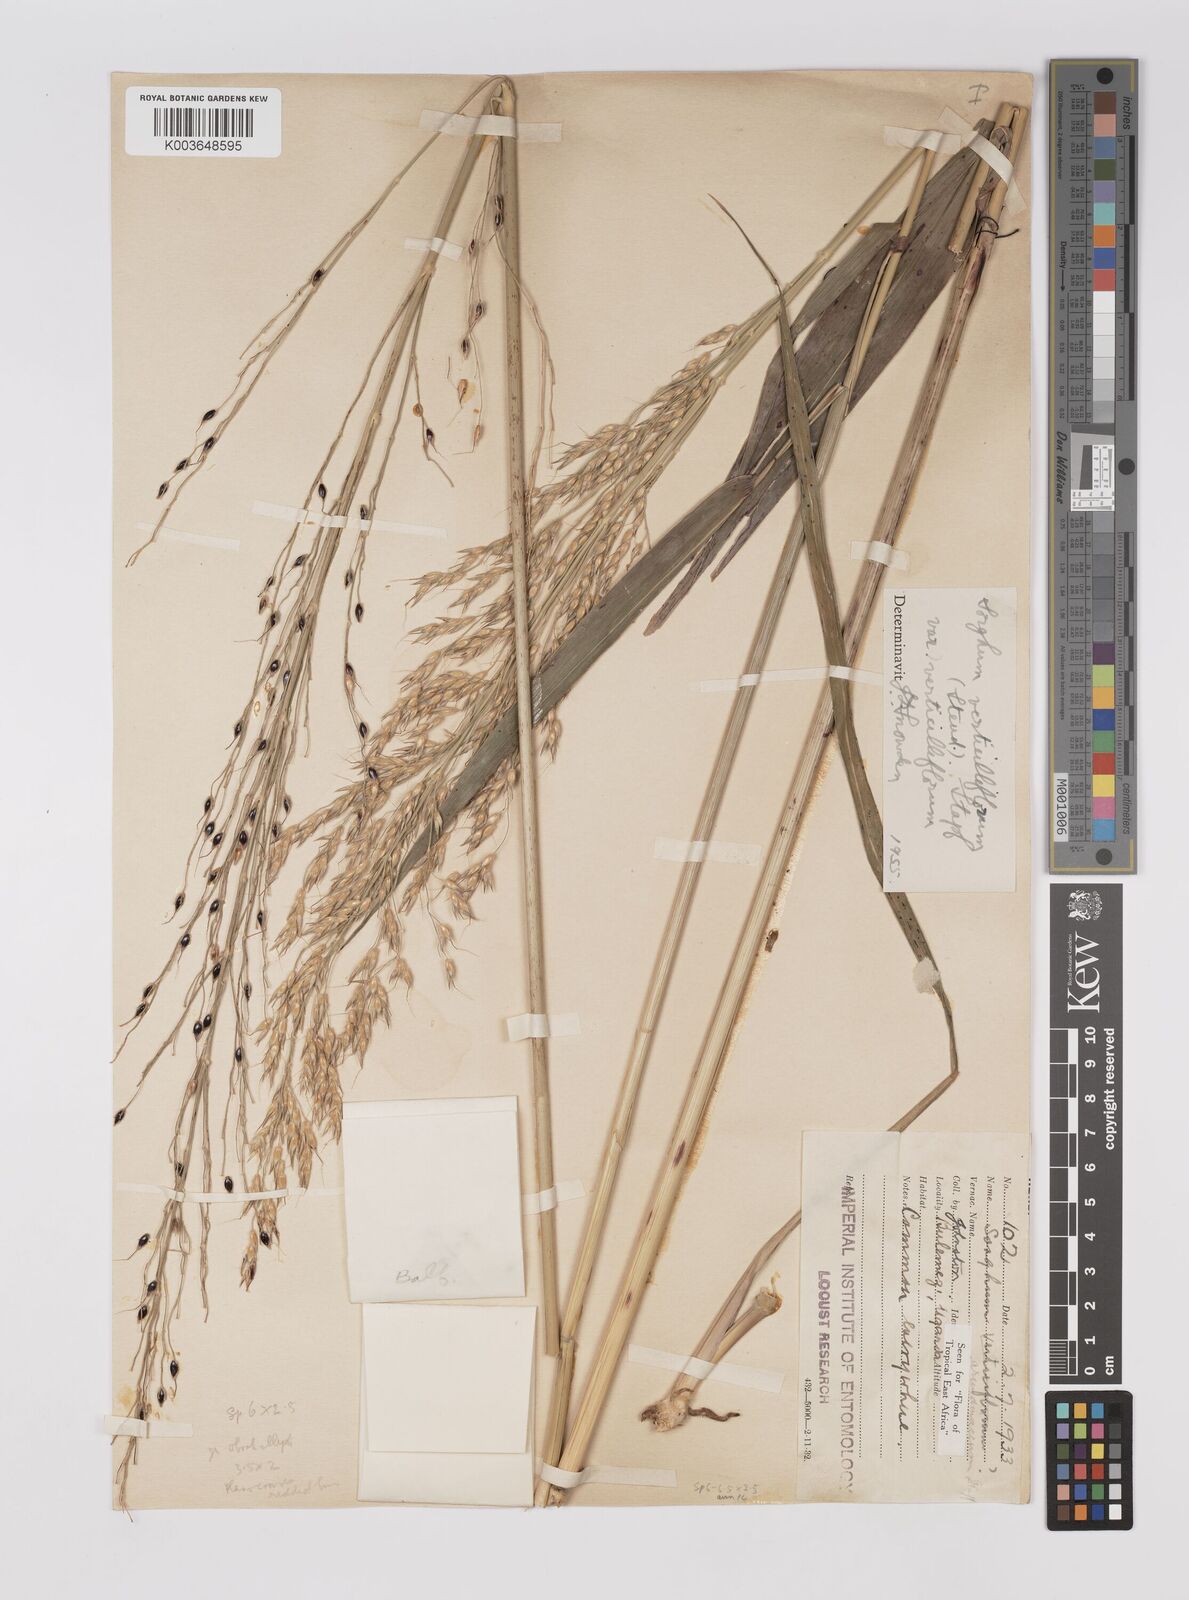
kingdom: Plantae
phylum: Tracheophyta
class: Liliopsida
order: Poales
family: Poaceae
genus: Sorghum
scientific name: Sorghum arundinaceum
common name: Sorghum
